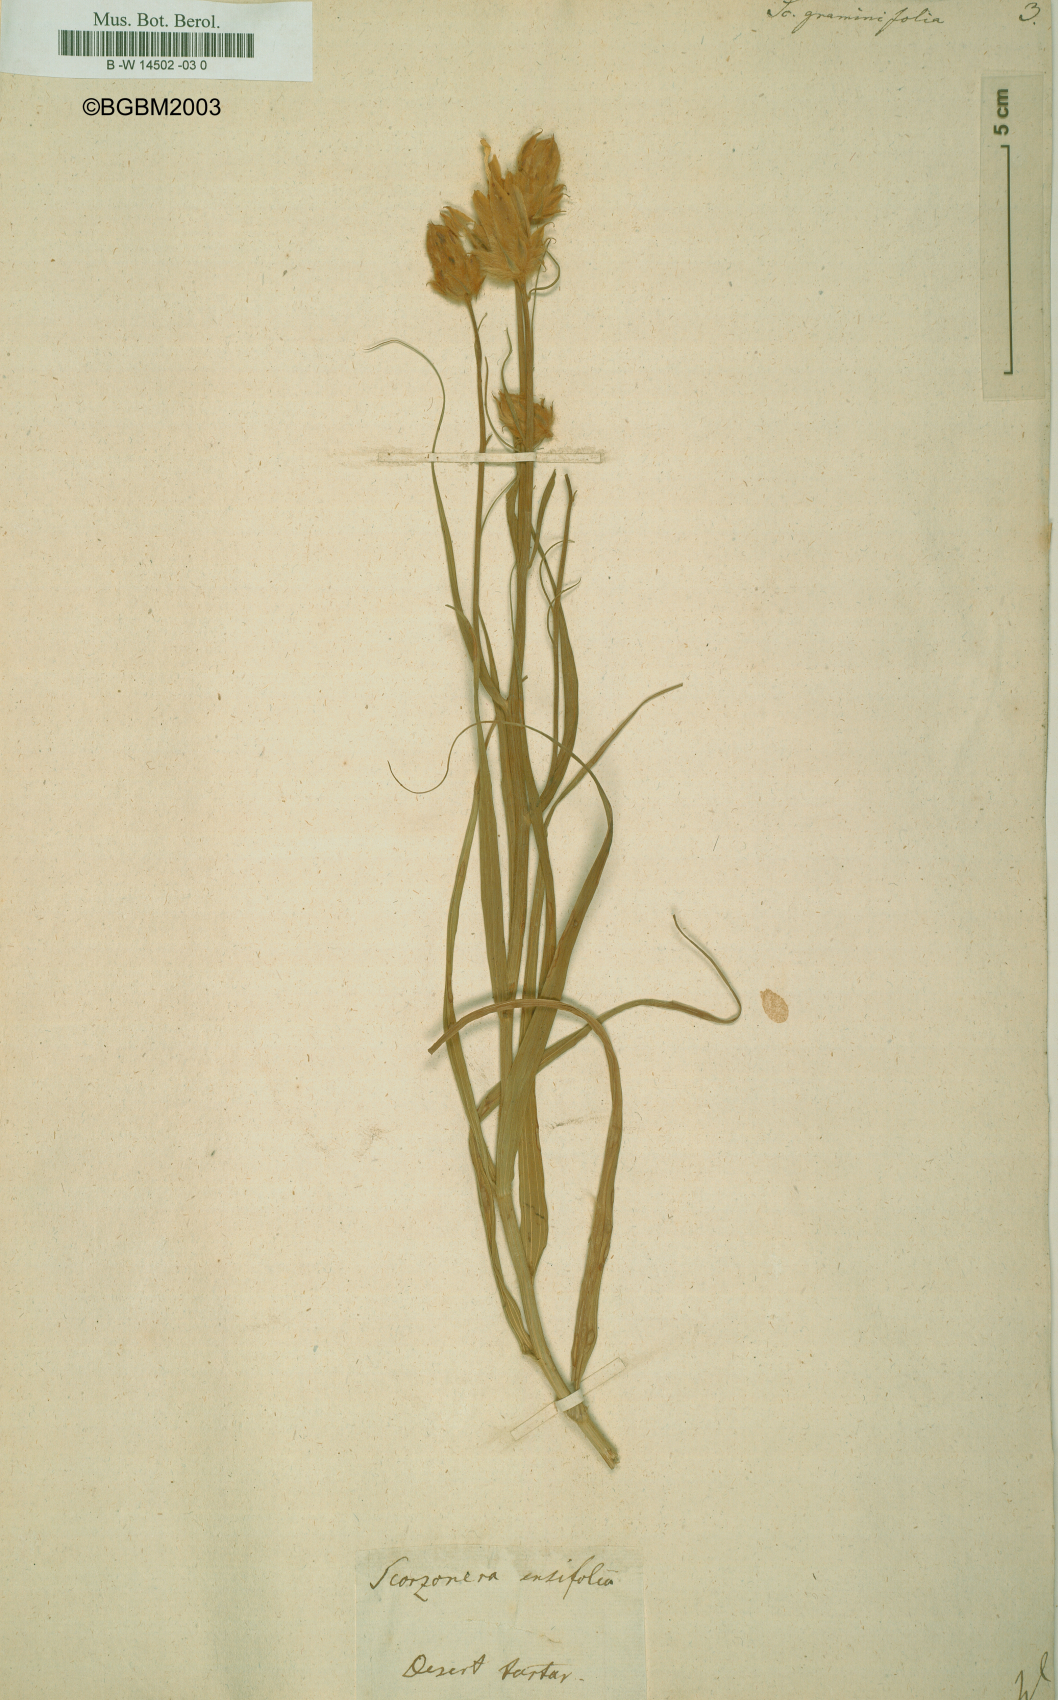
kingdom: Plantae
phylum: Tracheophyta
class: Magnoliopsida
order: Asterales
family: Asteraceae
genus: Scorzonera
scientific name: Scorzonera graminifolia
